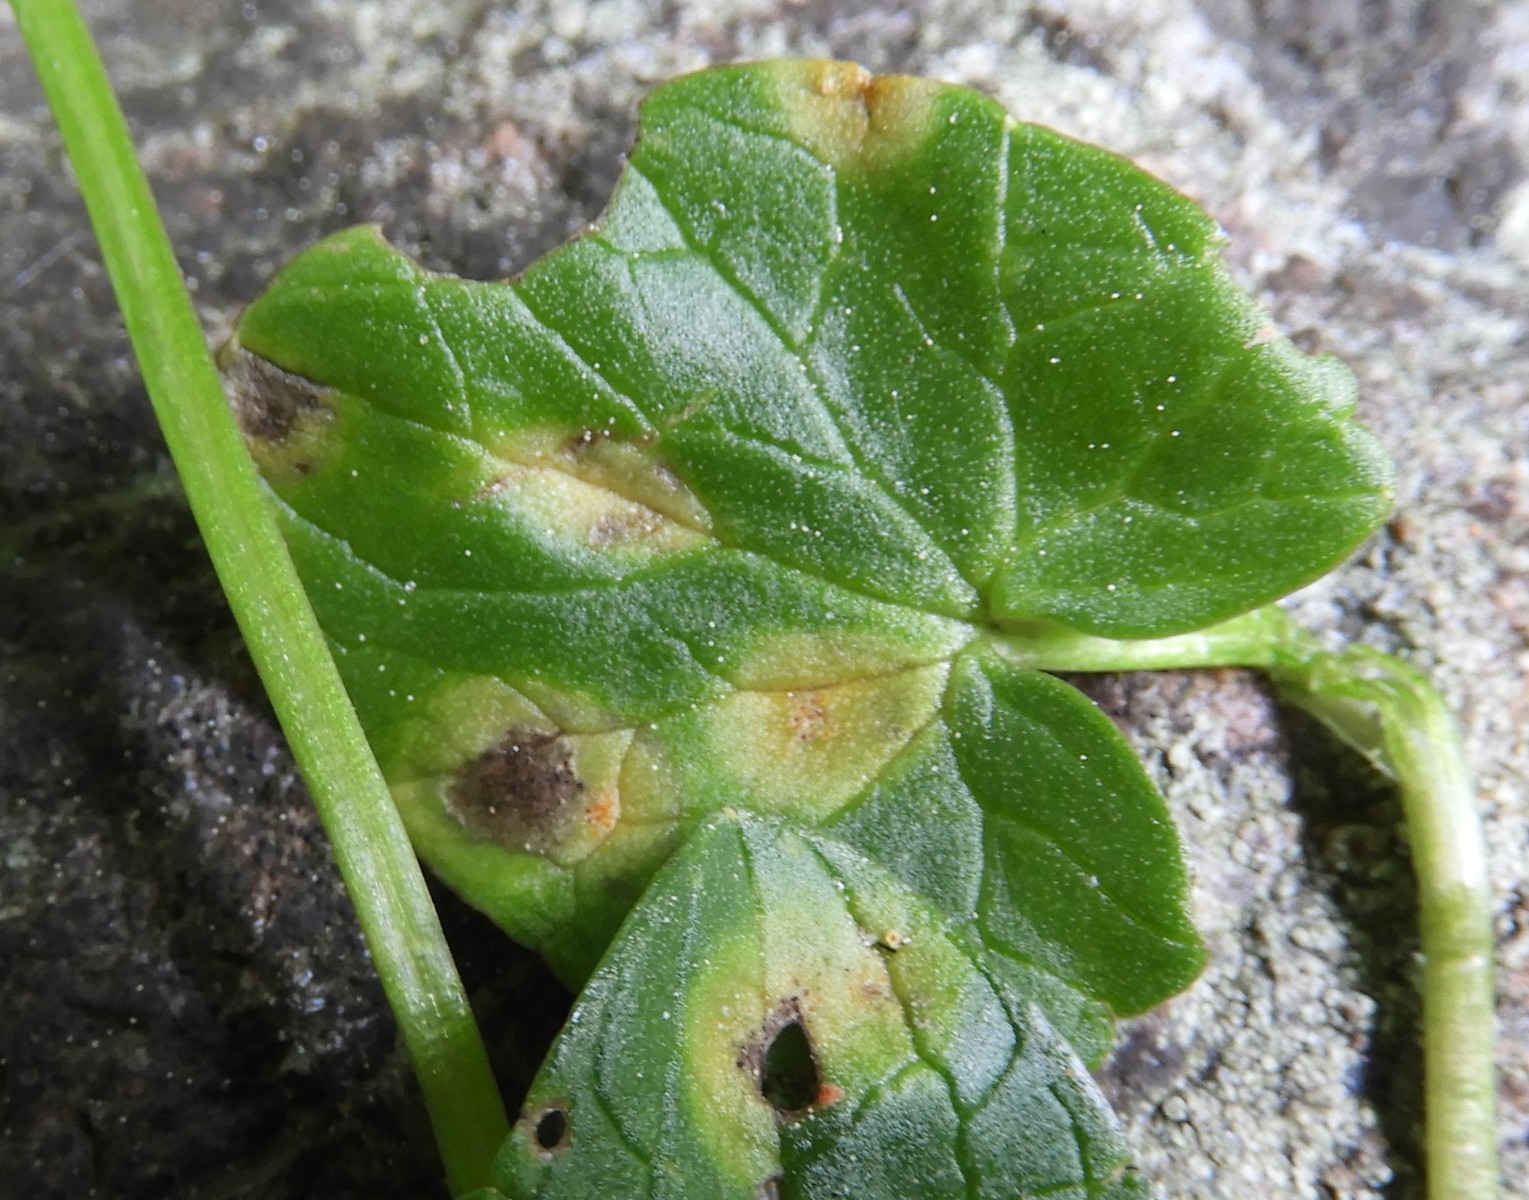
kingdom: Fungi
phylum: Basidiomycota
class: Pucciniomycetes
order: Pucciniales
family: Pucciniaceae
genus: Uromyces
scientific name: Uromyces ficariae
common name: vorterod-encellerust
